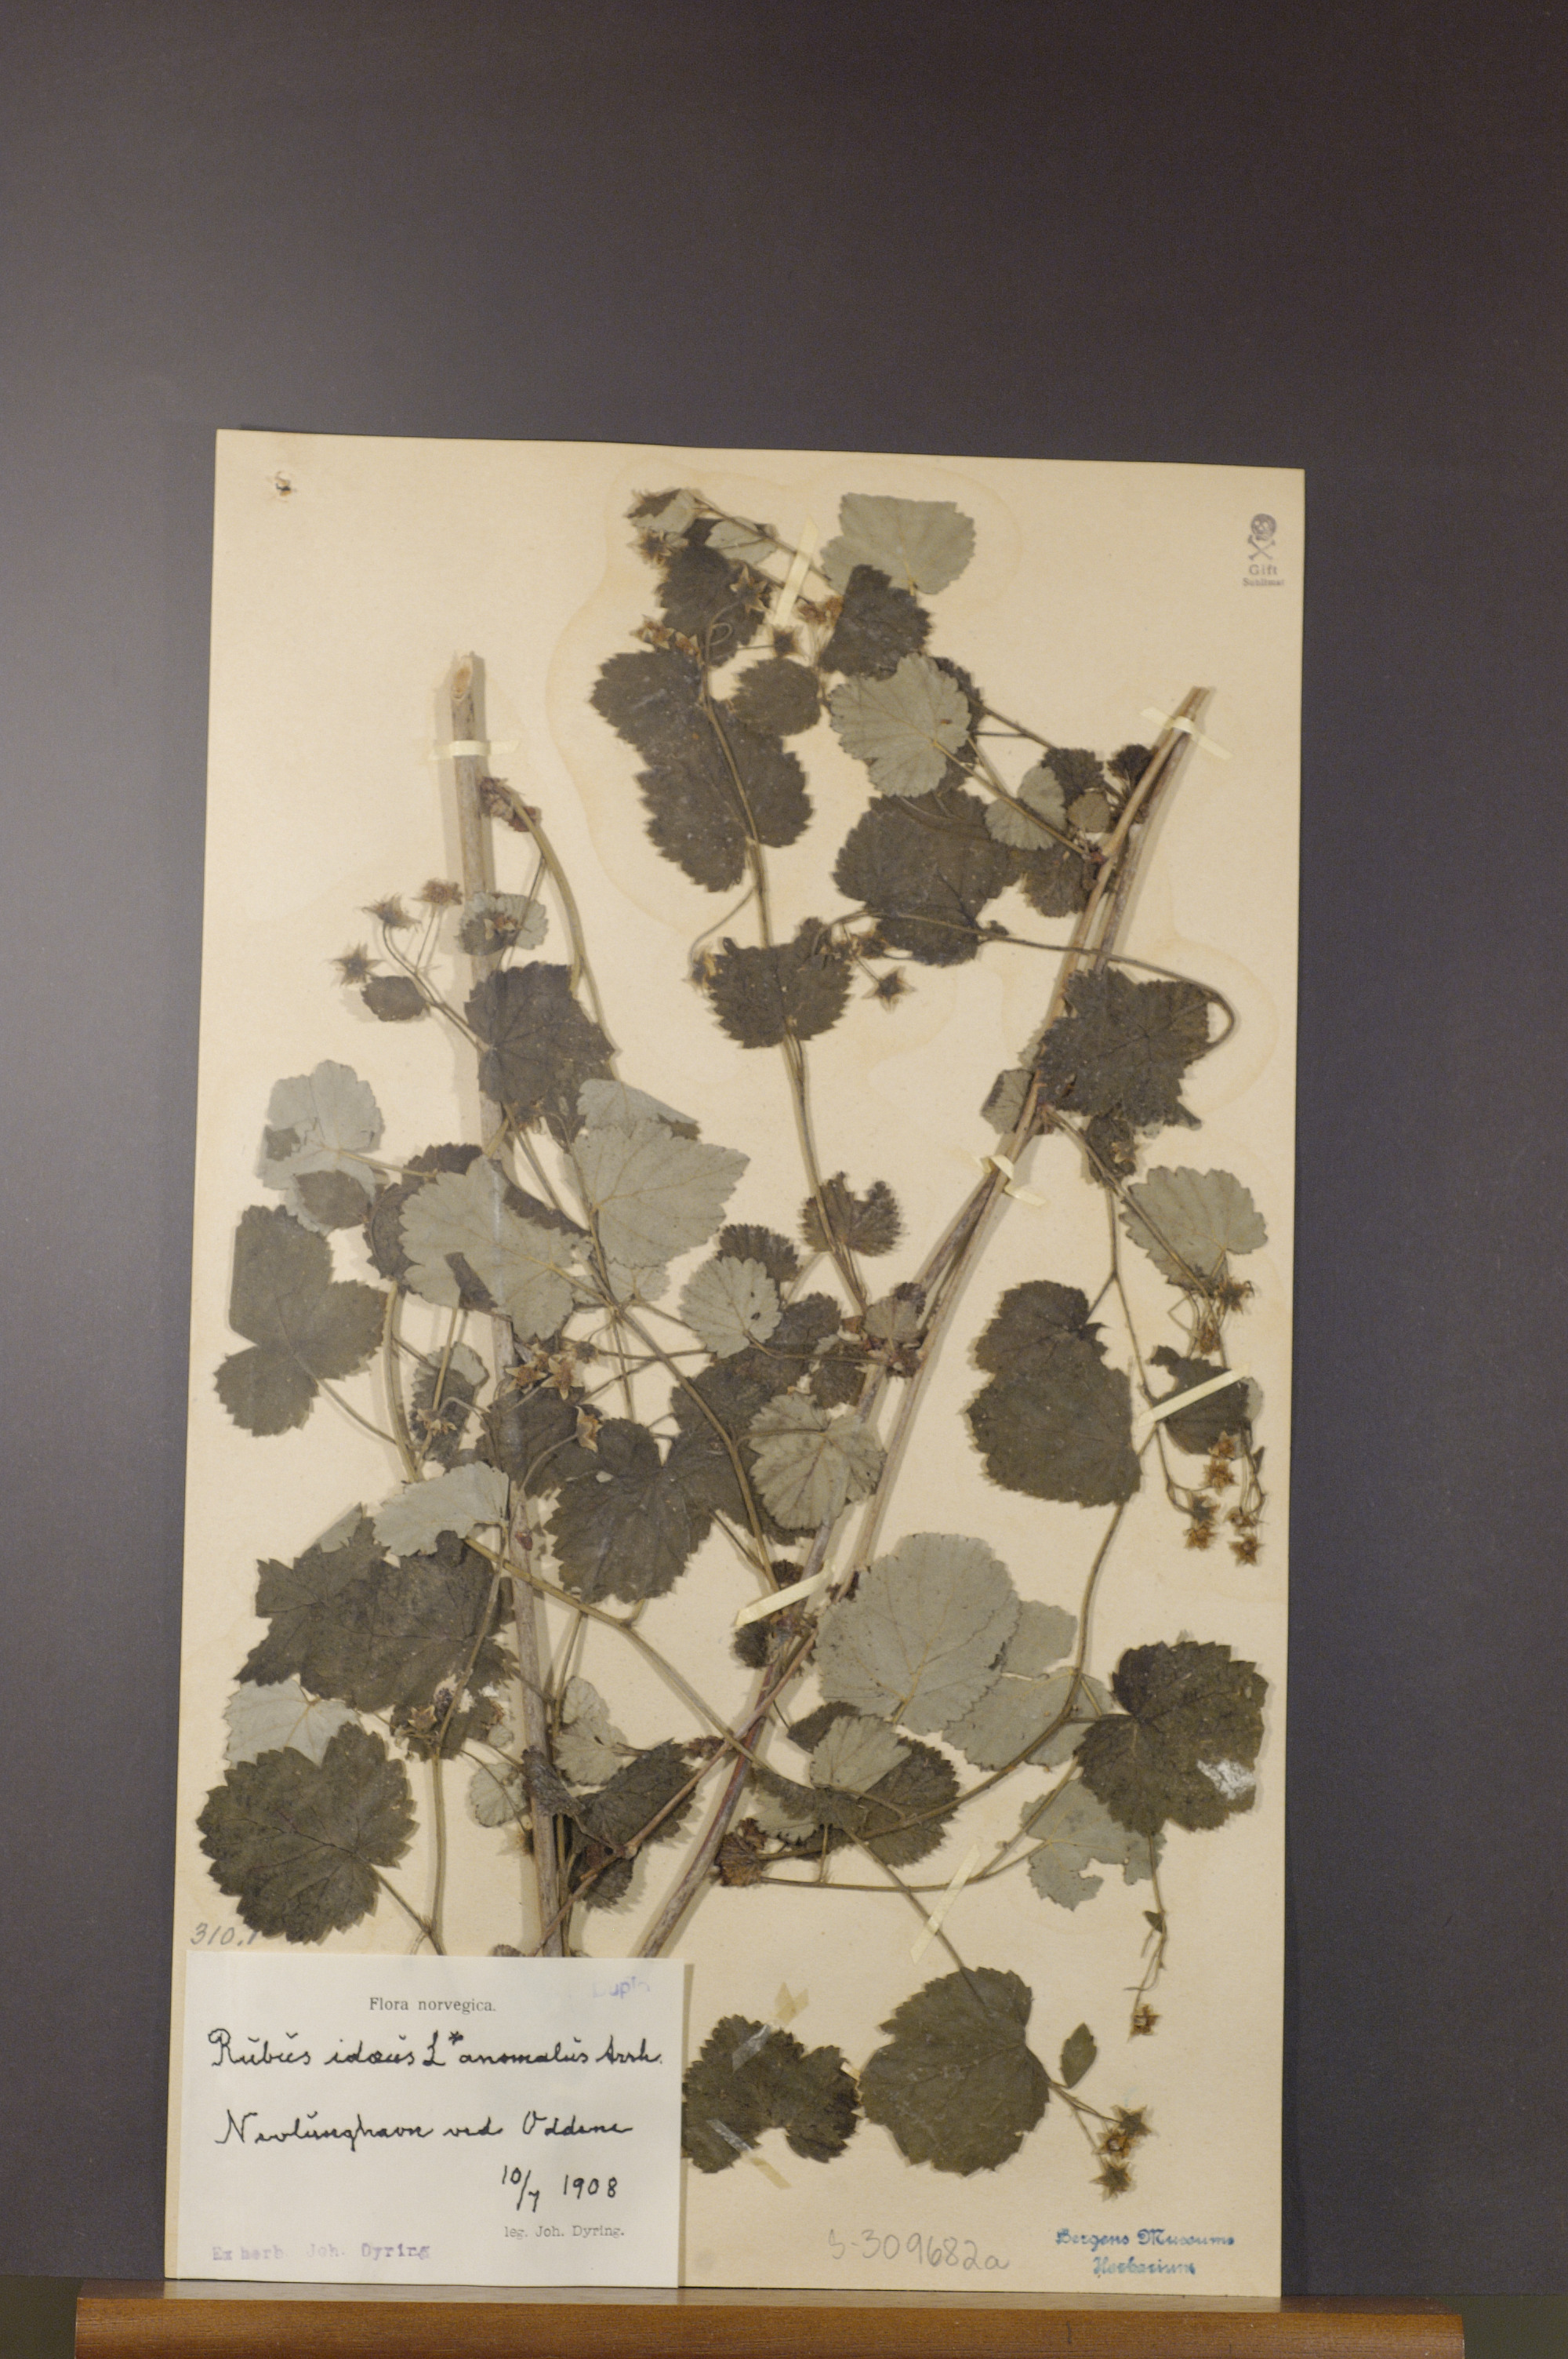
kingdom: Plantae
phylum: Tracheophyta
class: Magnoliopsida
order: Rosales
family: Rosaceae
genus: Rubus
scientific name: Rubus idaeus
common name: Raspberry
